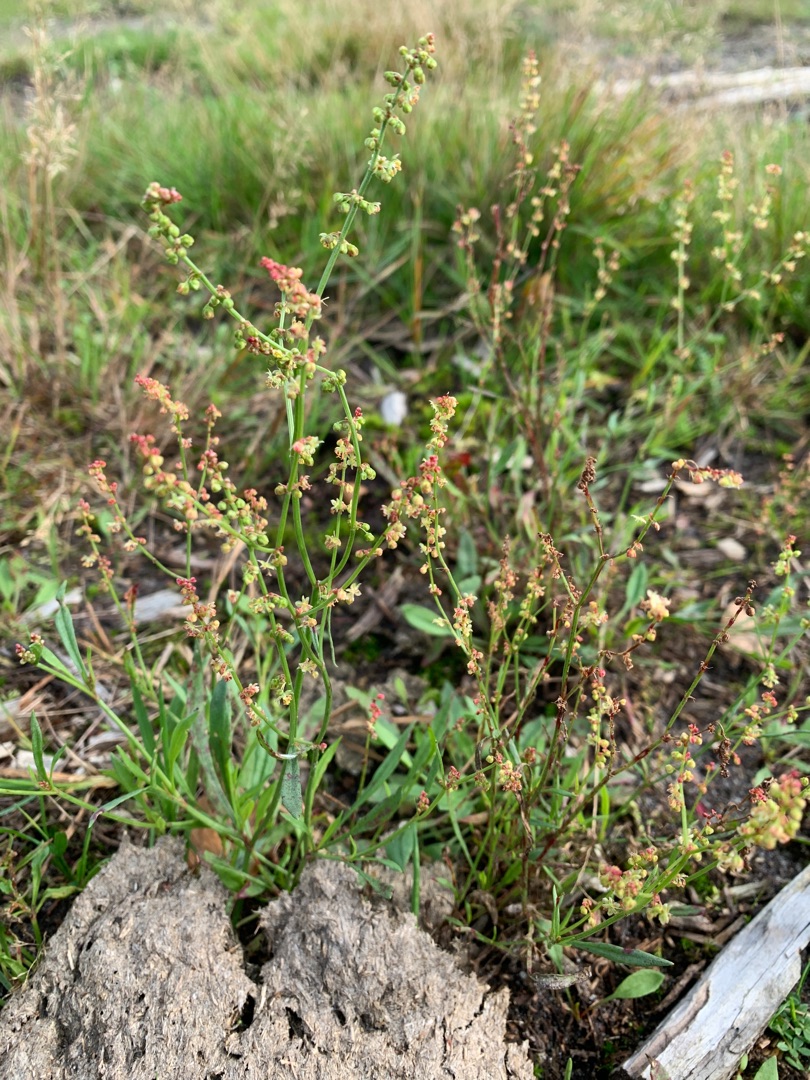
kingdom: Plantae
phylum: Tracheophyta
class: Magnoliopsida
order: Caryophyllales
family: Polygonaceae
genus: Rumex
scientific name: Rumex acetosella
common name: Rødknæ
